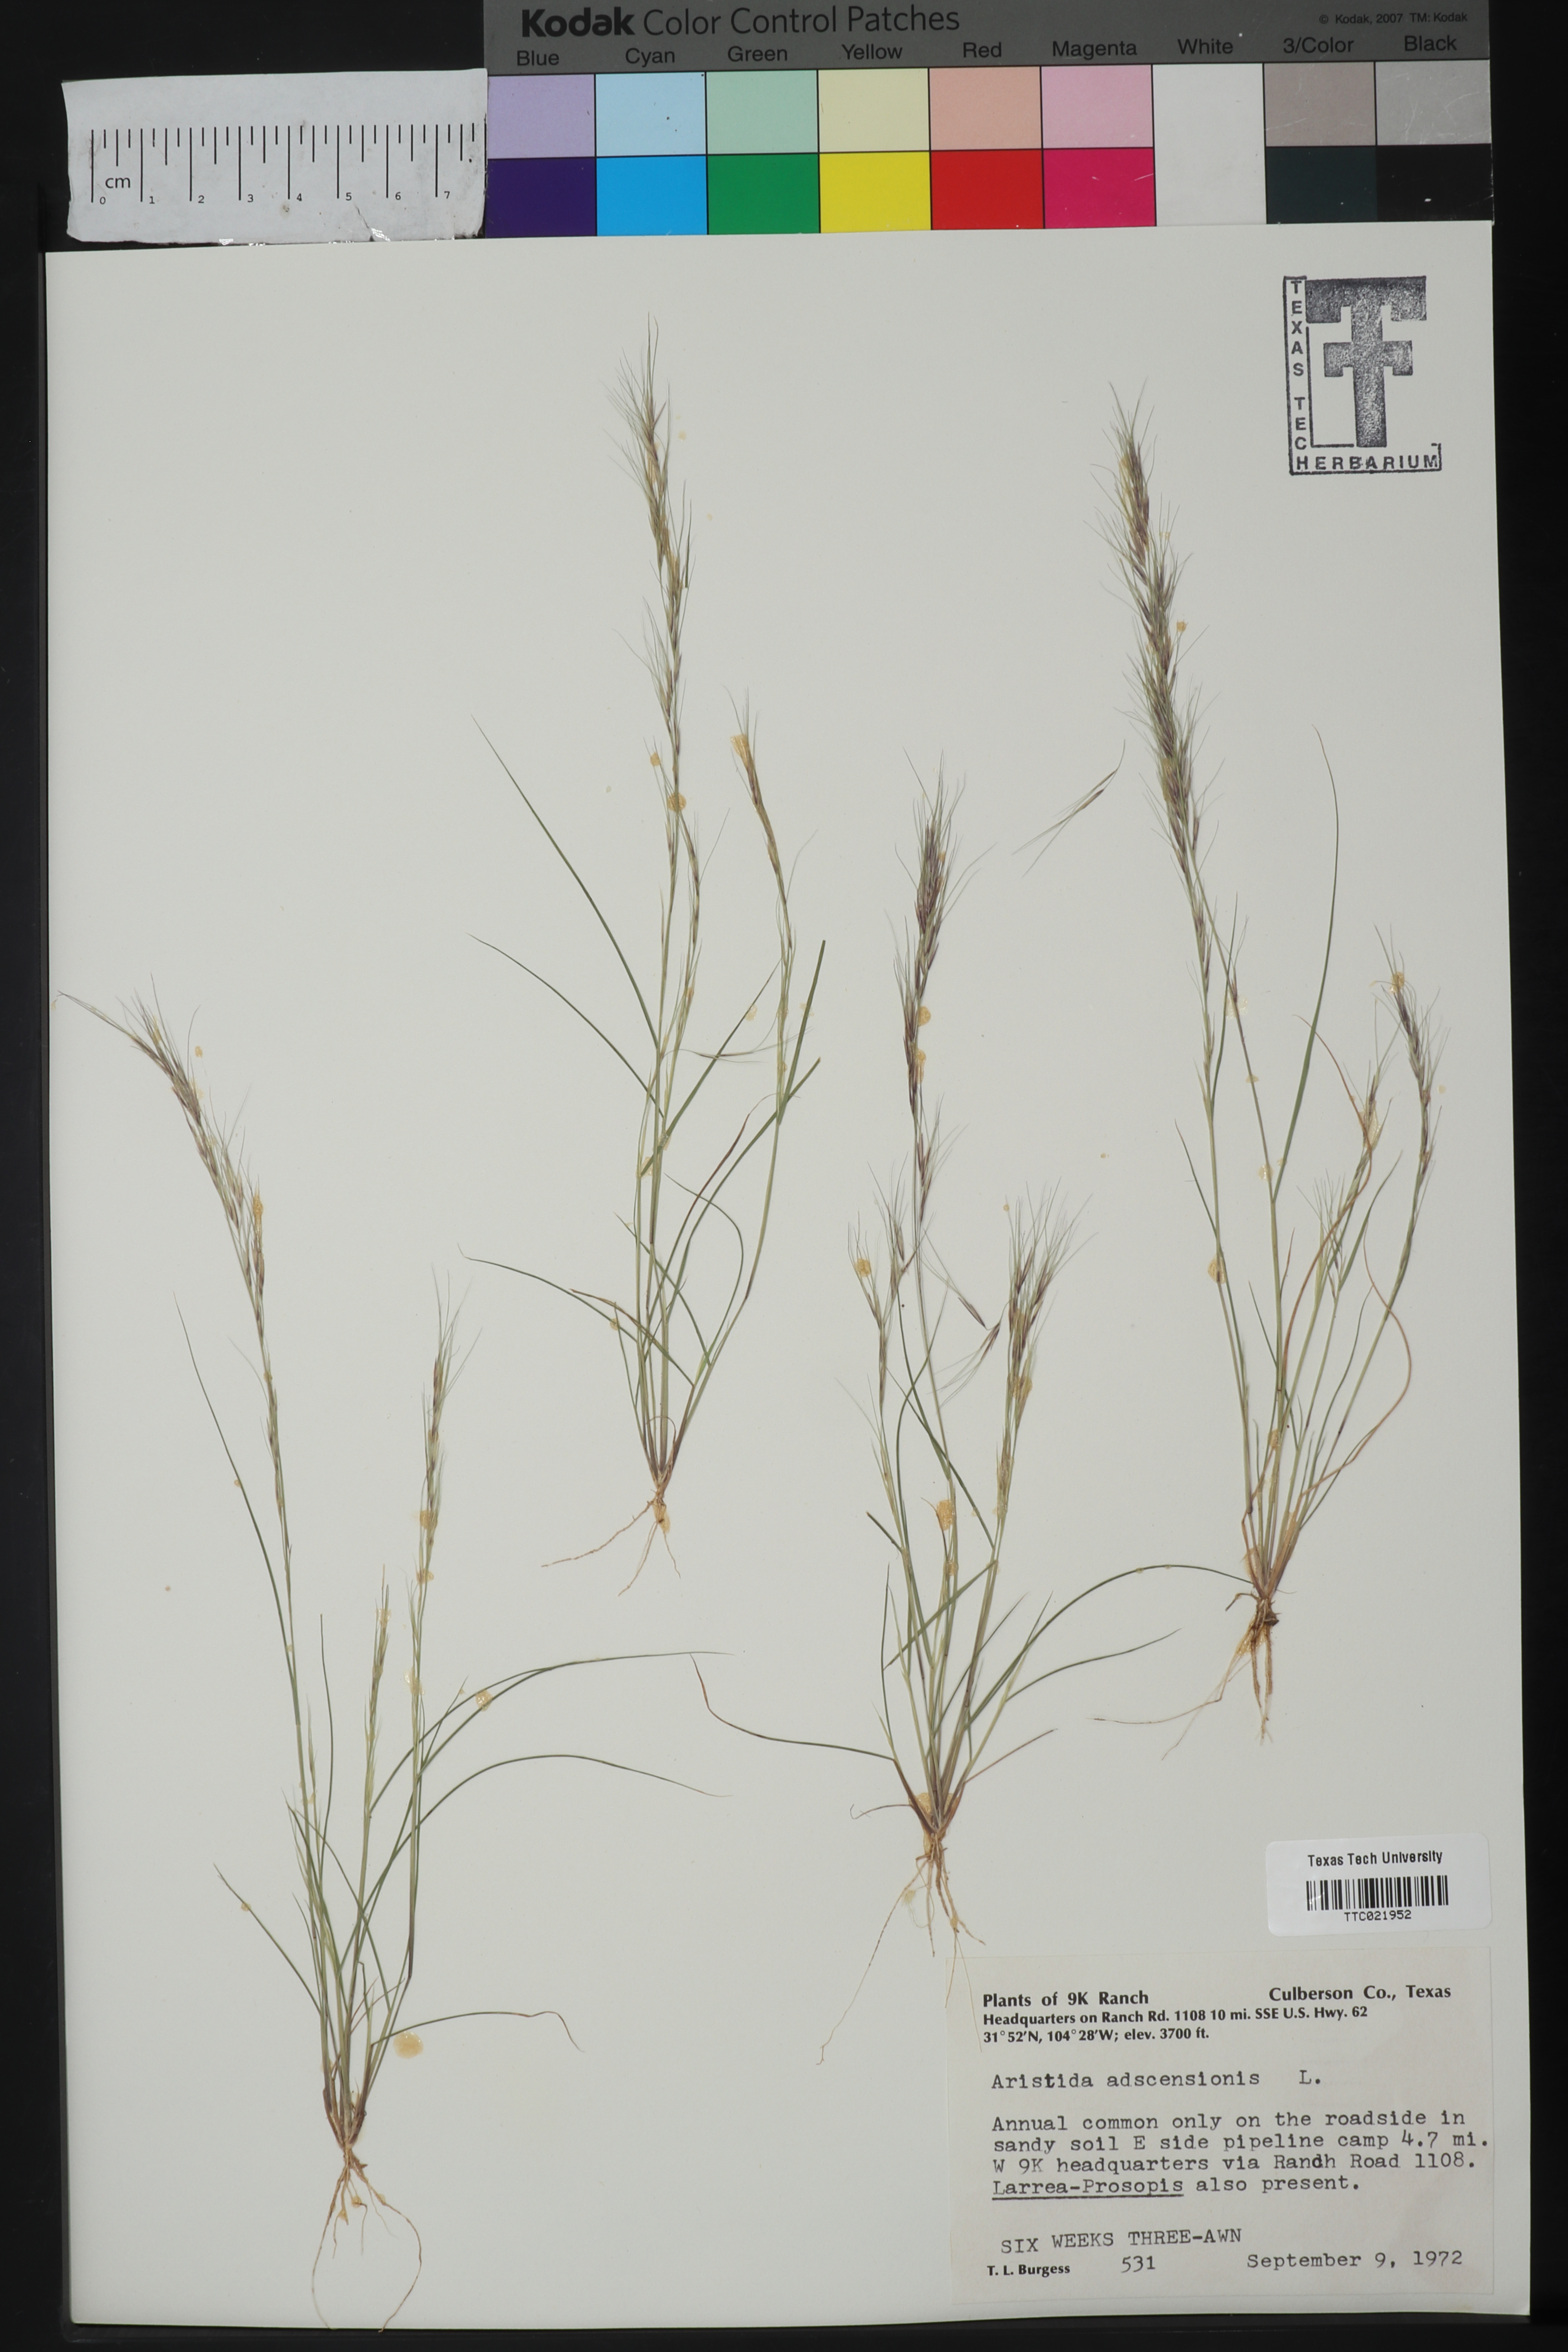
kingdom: Plantae
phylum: Tracheophyta
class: Liliopsida
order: Poales
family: Poaceae
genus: Aristida
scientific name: Aristida adscensionis
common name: Sixweeks threeawn
